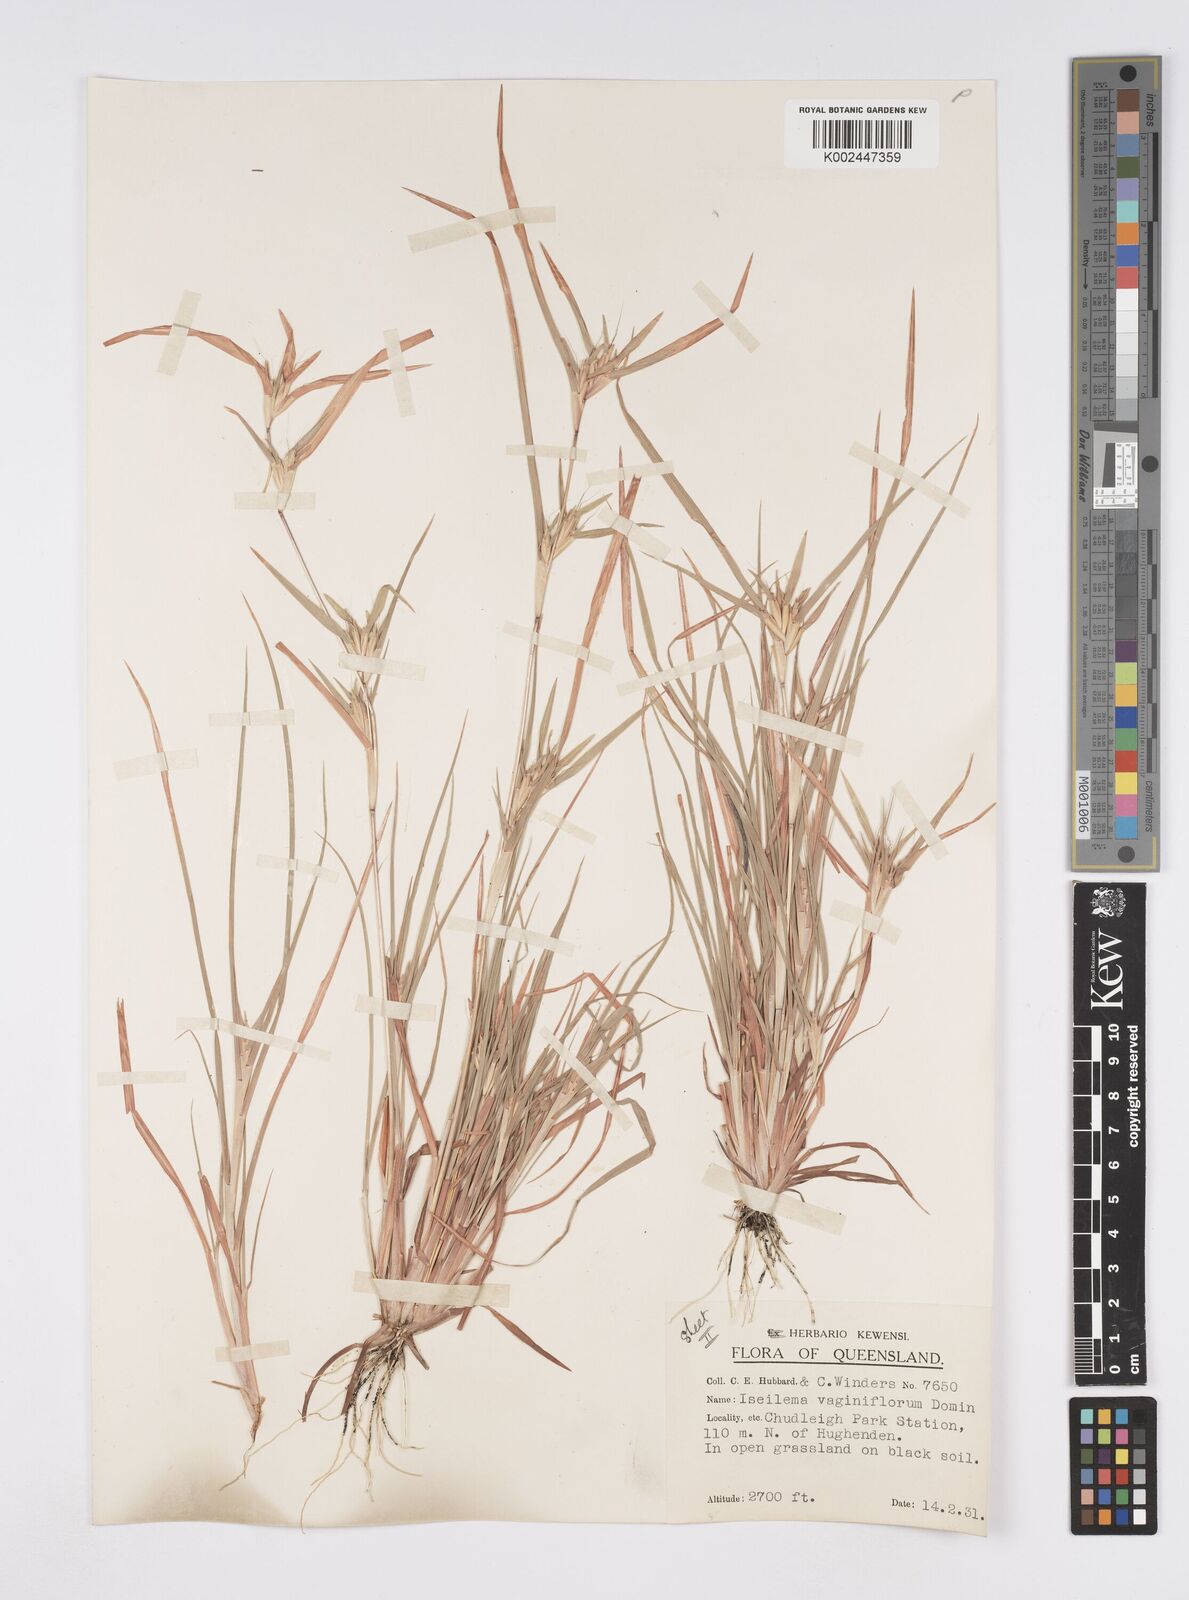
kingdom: Plantae
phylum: Tracheophyta
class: Liliopsida
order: Poales
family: Poaceae
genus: Iseilema
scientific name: Iseilema vaginiflorum
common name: Red flinders grass
